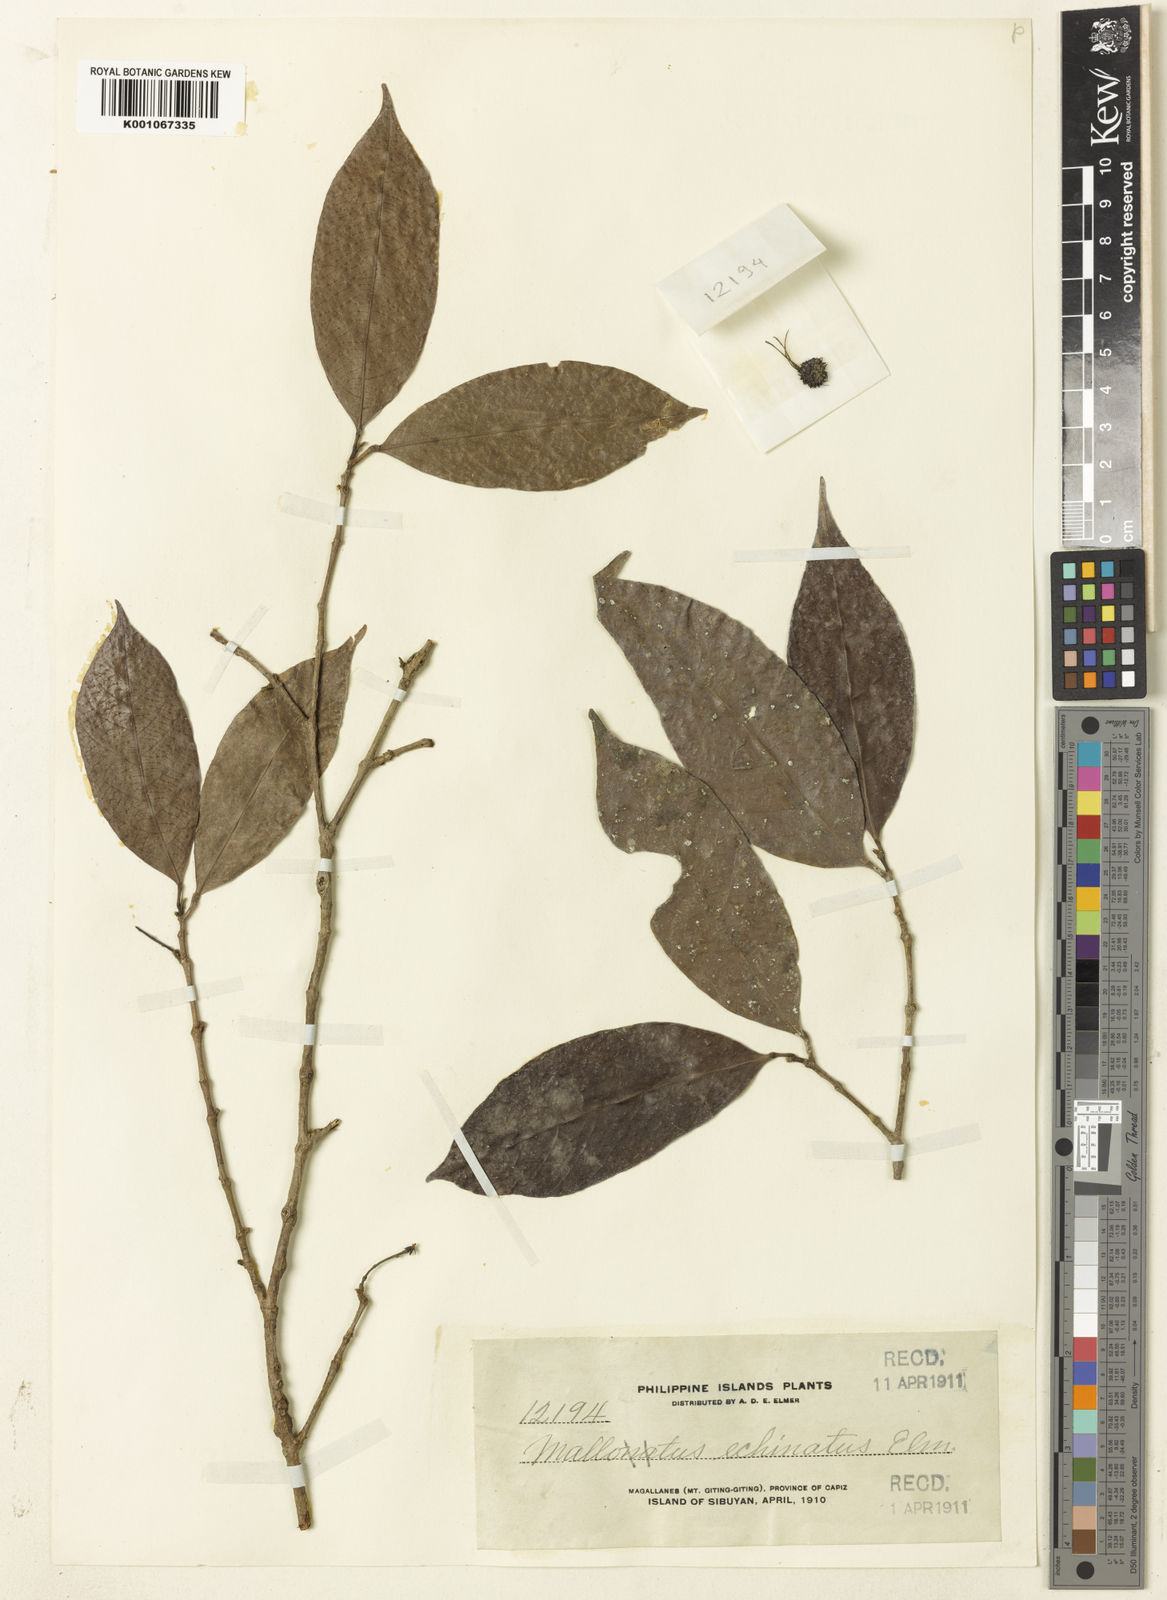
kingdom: Plantae
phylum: Tracheophyta
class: Magnoliopsida
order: Malpighiales
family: Euphorbiaceae
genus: Hancea
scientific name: Hancea penangensis
